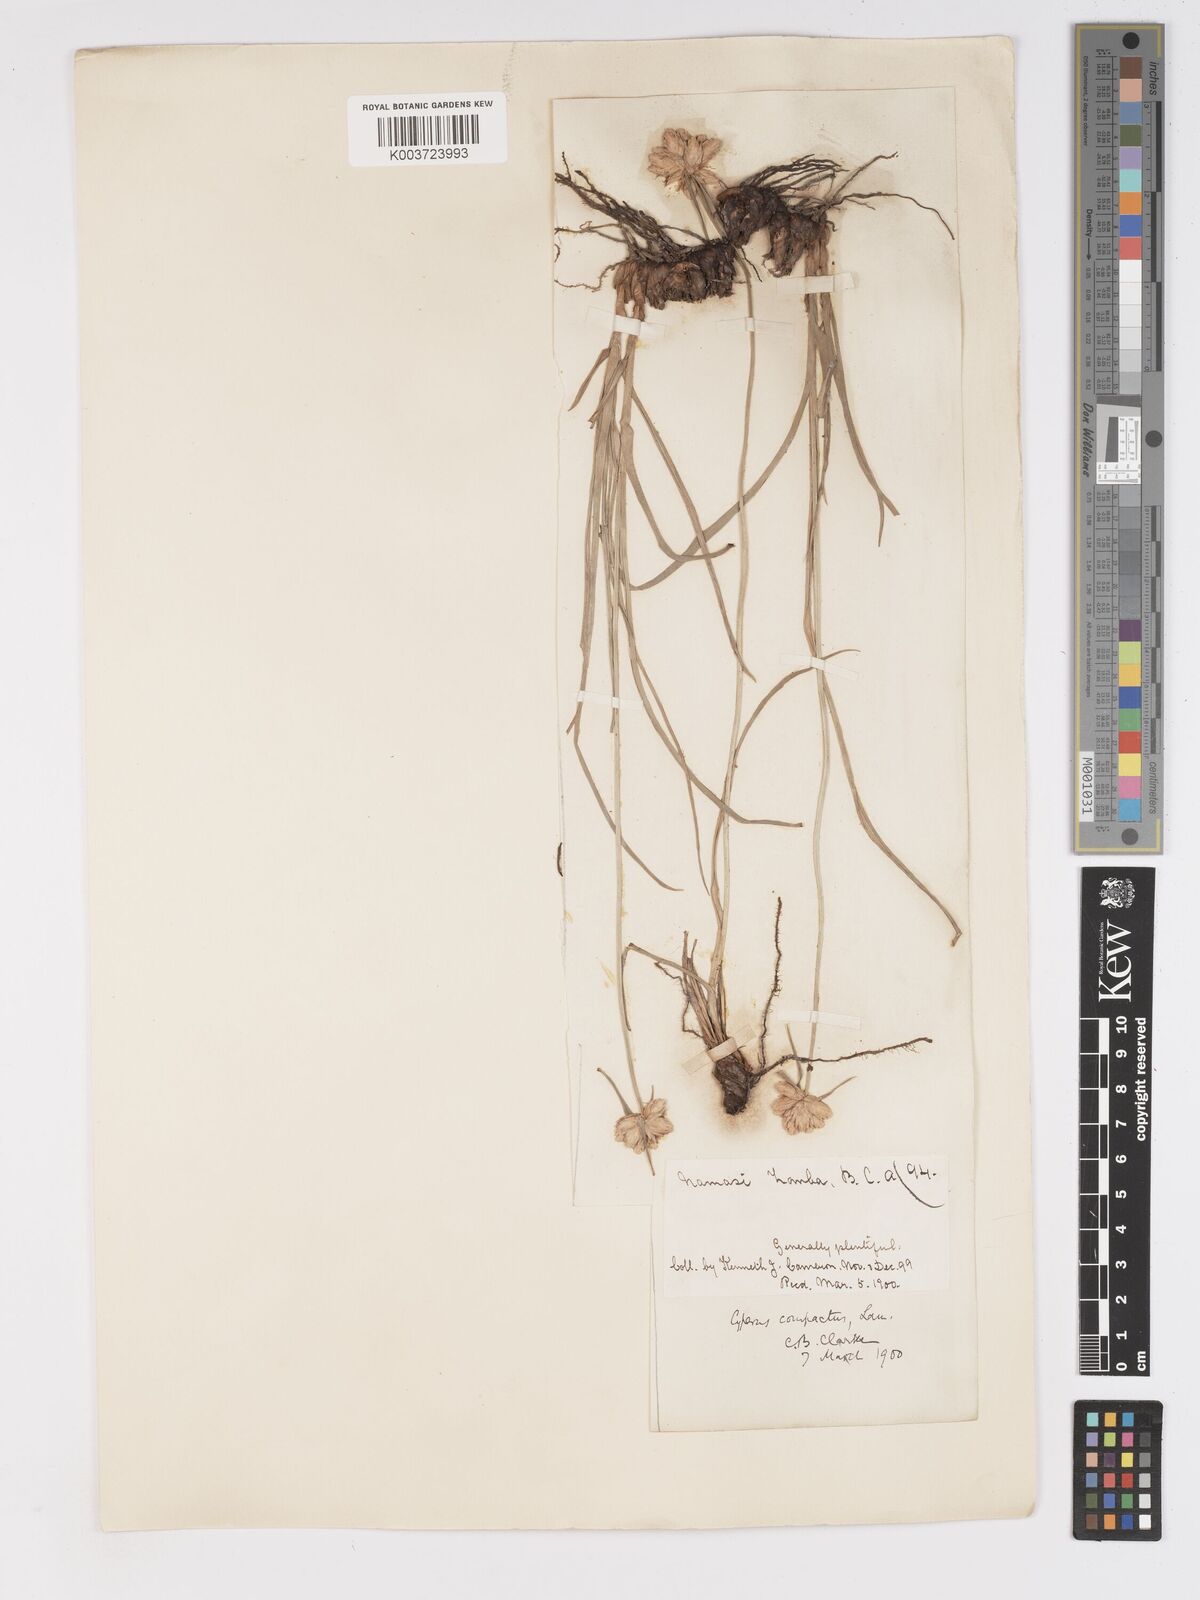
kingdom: Plantae
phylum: Tracheophyta
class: Liliopsida
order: Poales
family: Cyperaceae
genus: Cyperus
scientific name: Cyperus niveus
